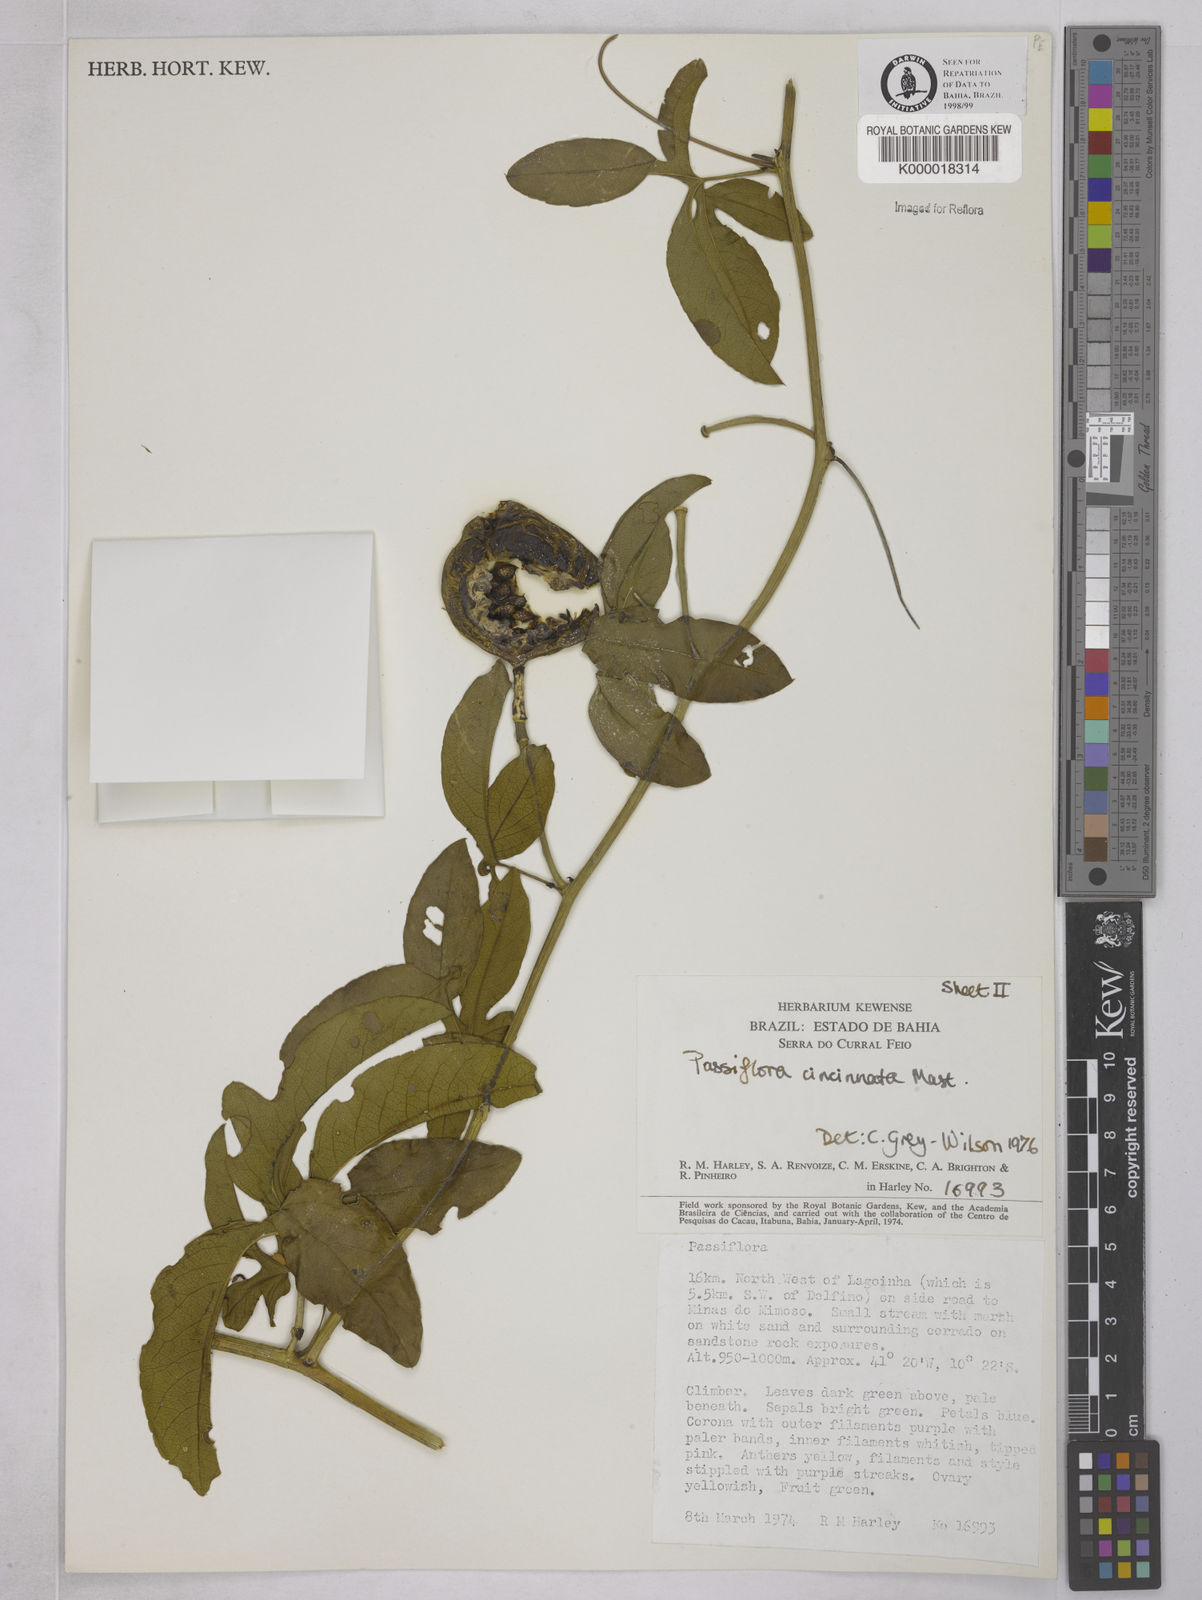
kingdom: Plantae
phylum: Tracheophyta
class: Magnoliopsida
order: Malpighiales
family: Passifloraceae
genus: Passiflora
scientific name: Passiflora cincinnata
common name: Crato passionvine
